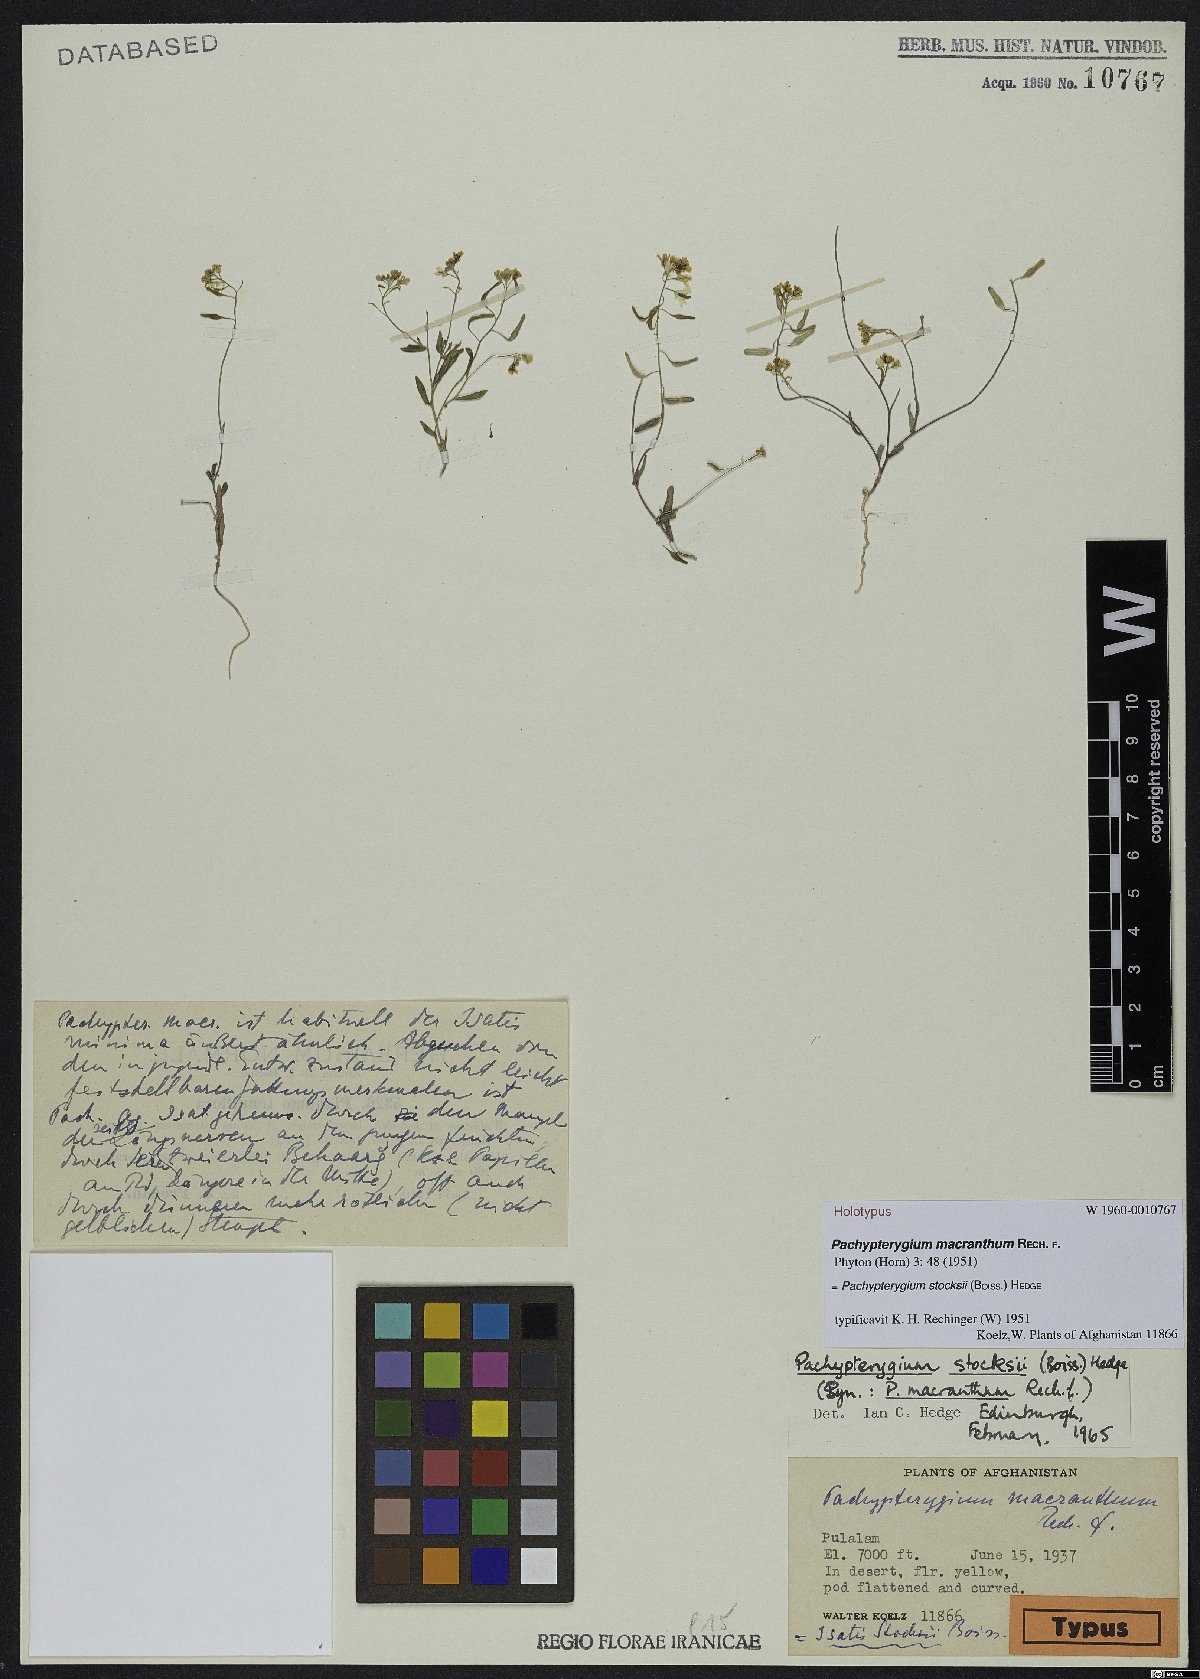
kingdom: Plantae
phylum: Tracheophyta
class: Magnoliopsida
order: Brassicales
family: Brassicaceae
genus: Isatis
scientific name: Isatis stocksii
